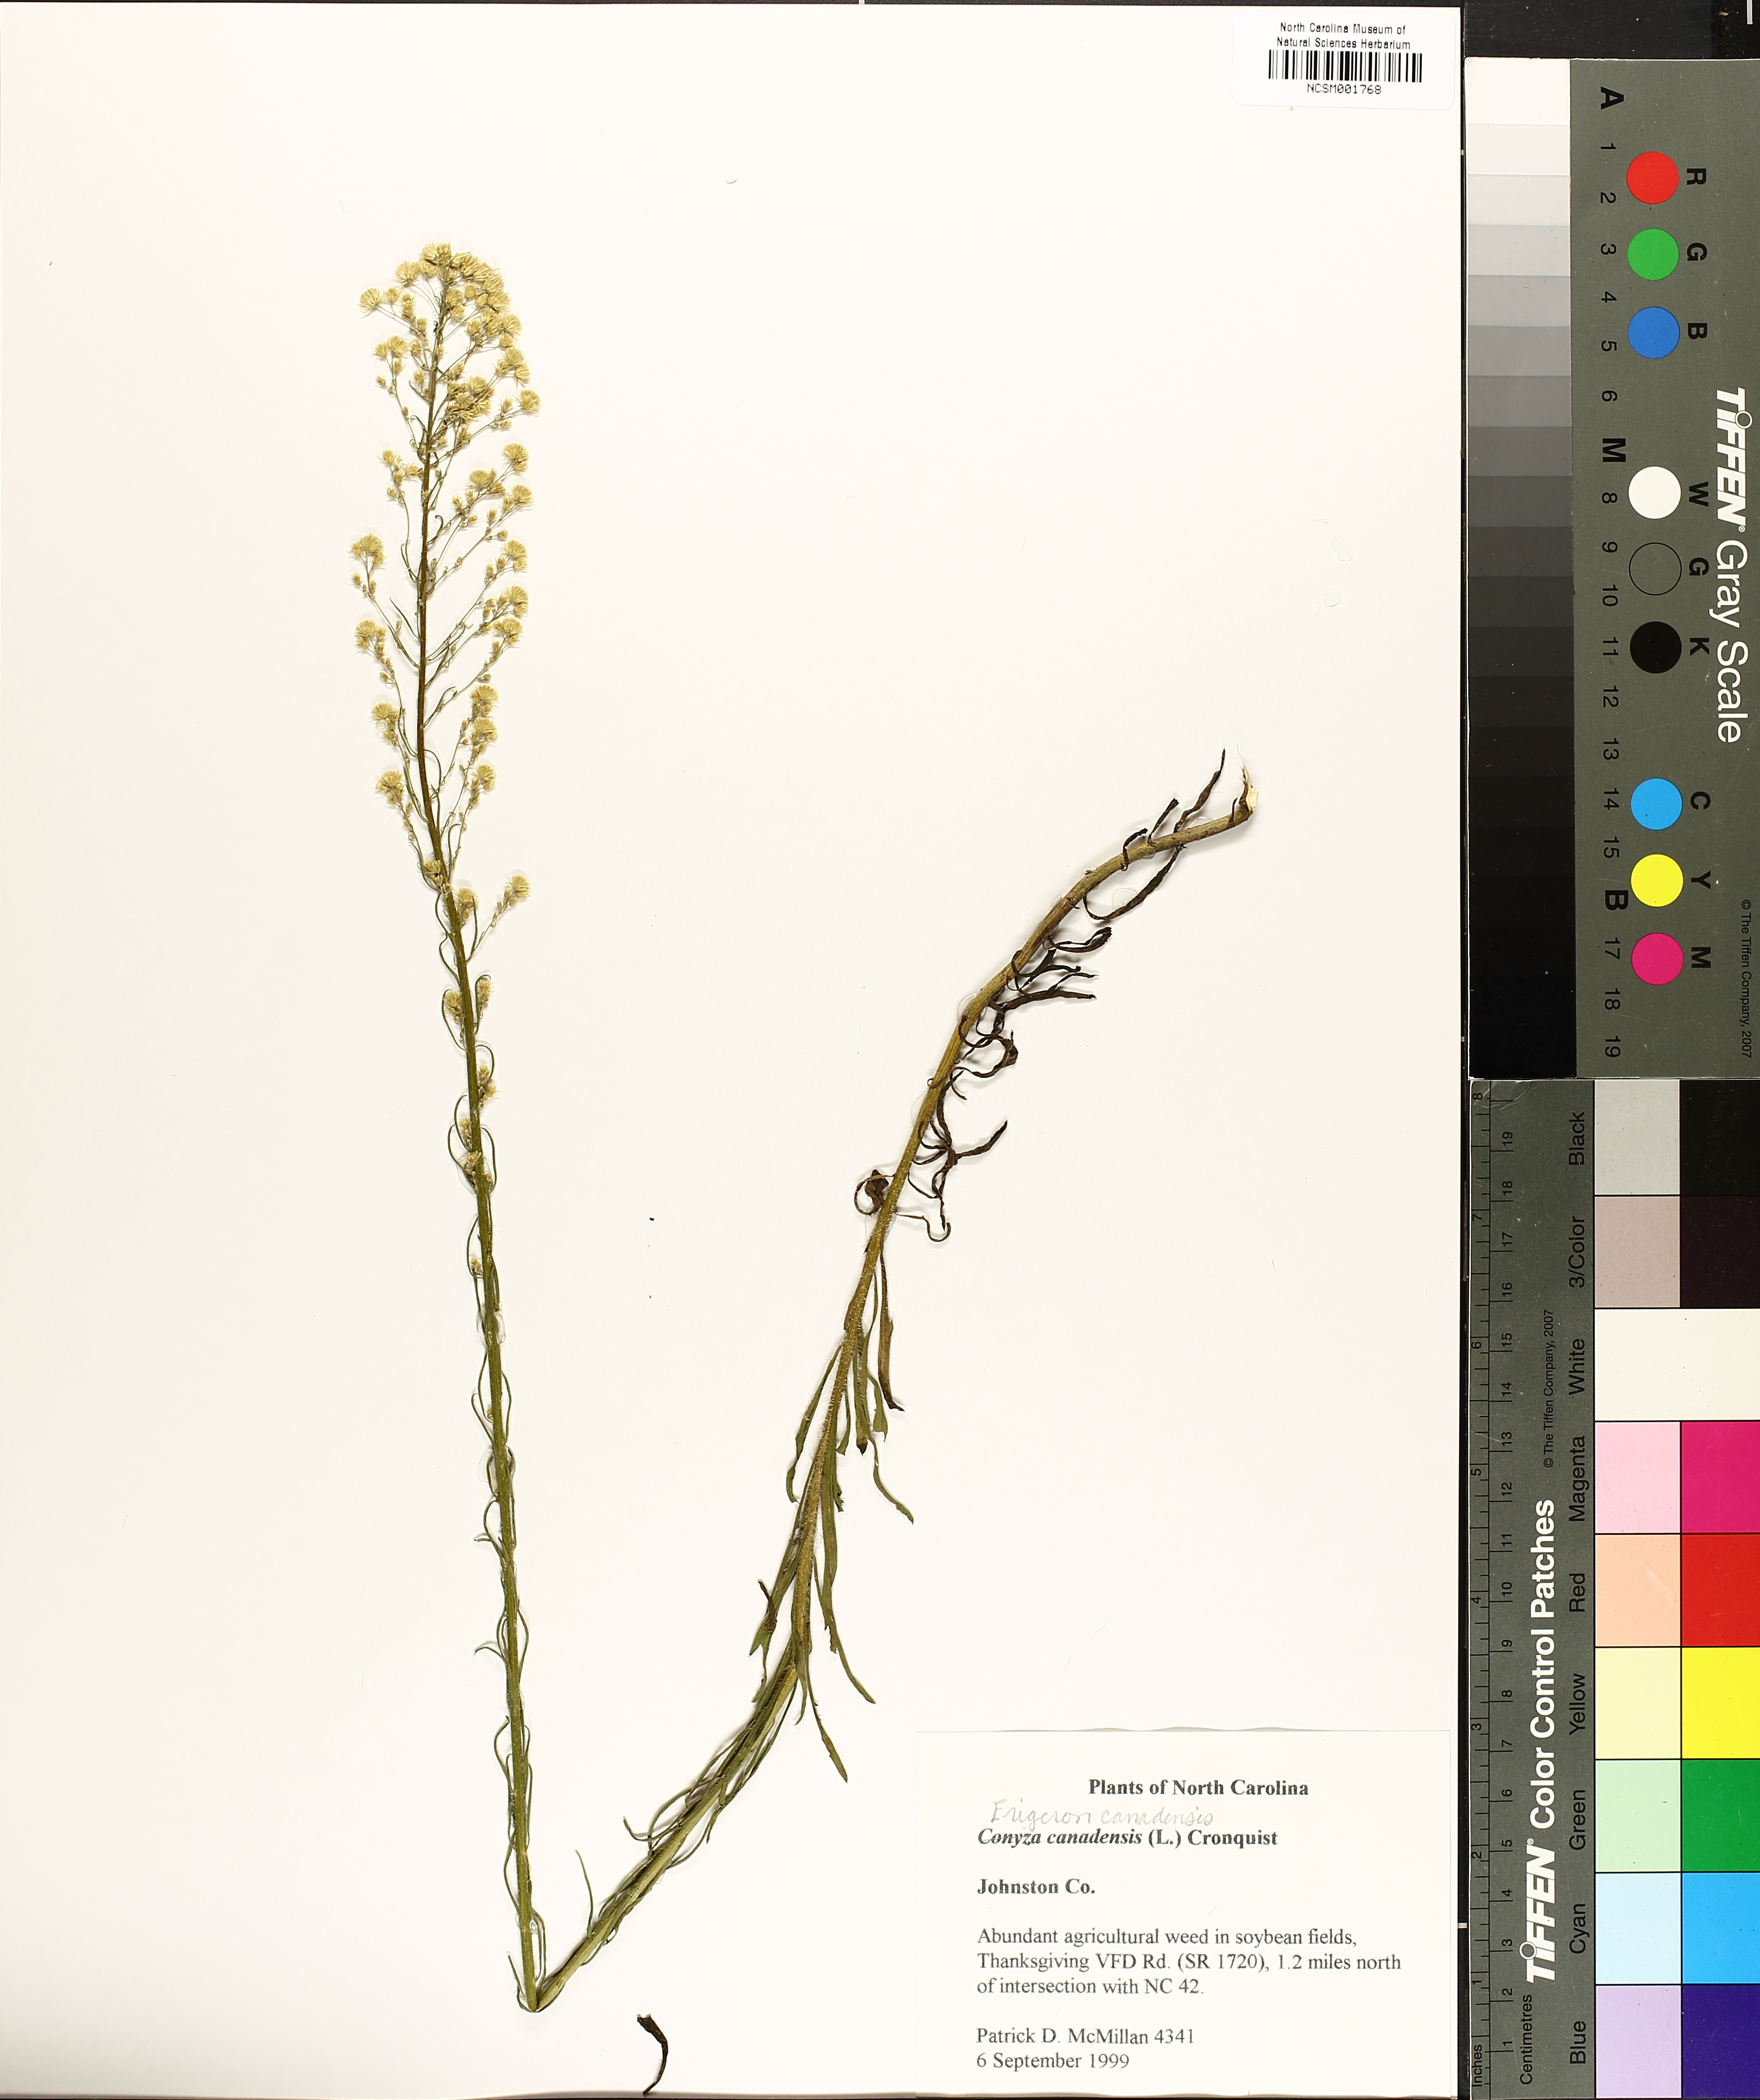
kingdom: Plantae
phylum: Tracheophyta
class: Magnoliopsida
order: Asterales
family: Asteraceae
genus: Erigeron
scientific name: Erigeron canadensis
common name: Canadian fleabane
